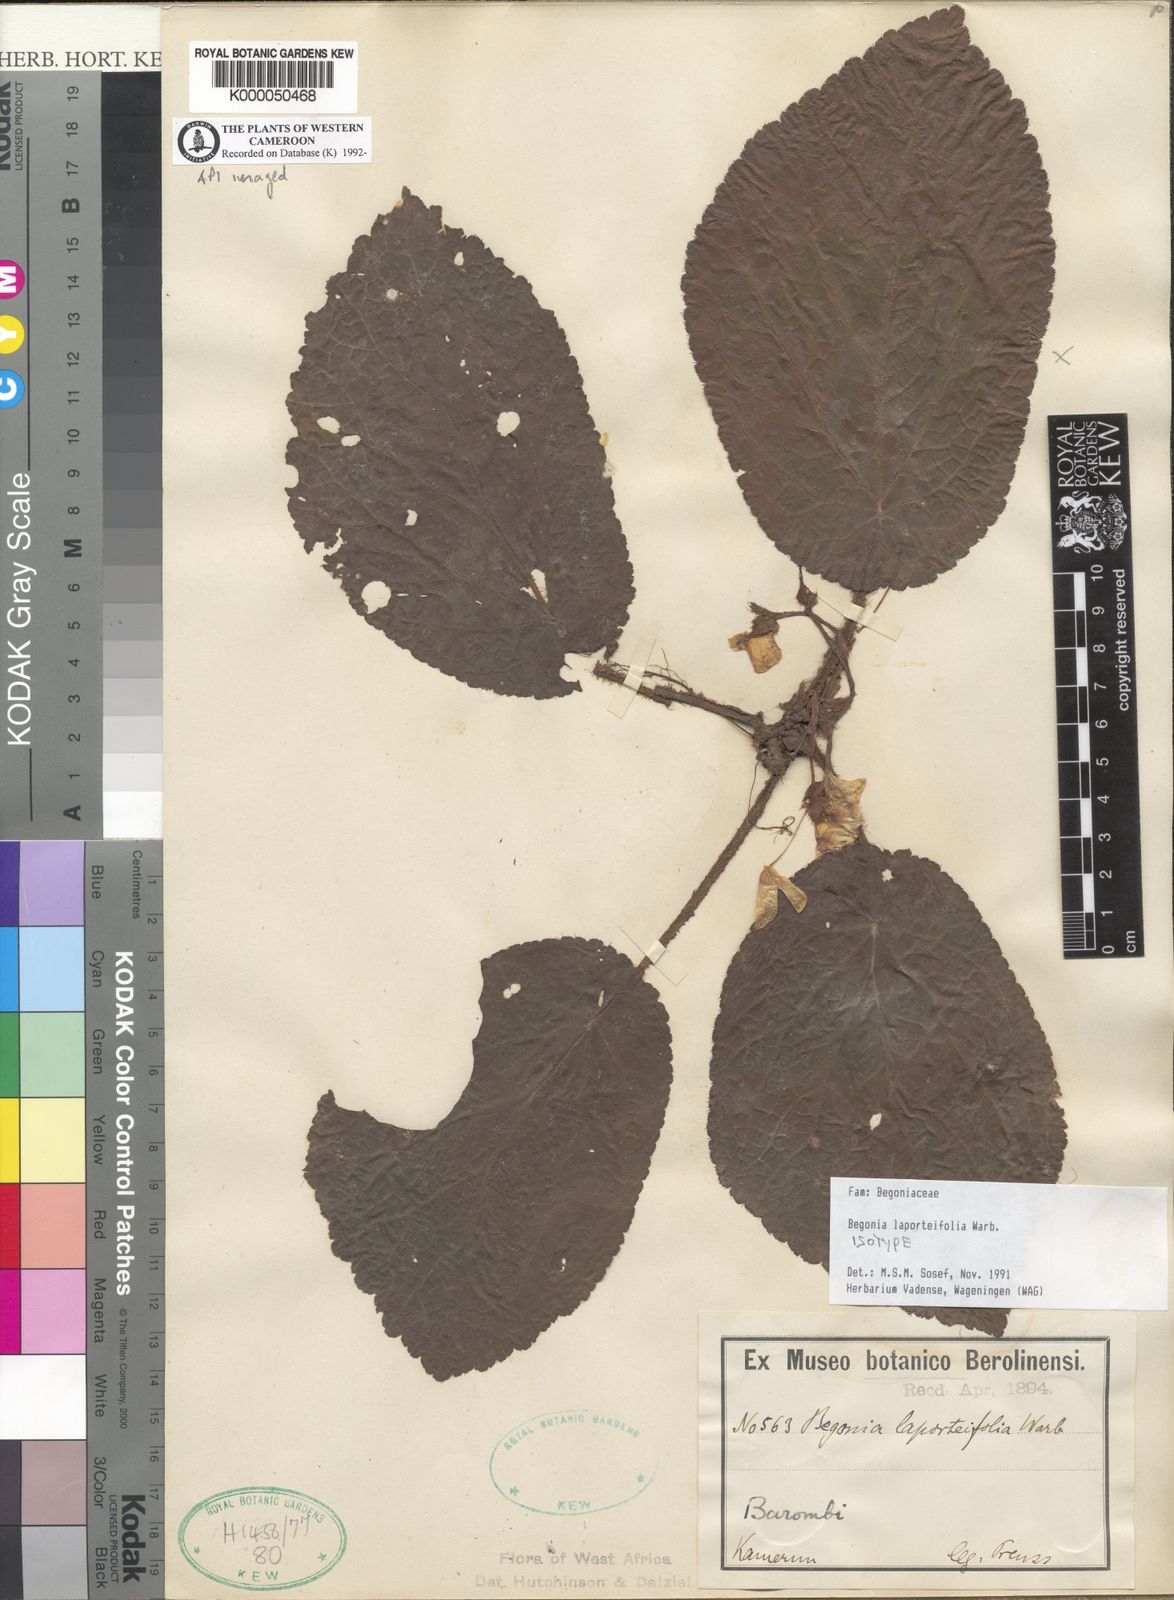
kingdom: Plantae
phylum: Tracheophyta
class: Magnoliopsida
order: Cucurbitales
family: Begoniaceae
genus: Begonia
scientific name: Begonia laporteifolia
